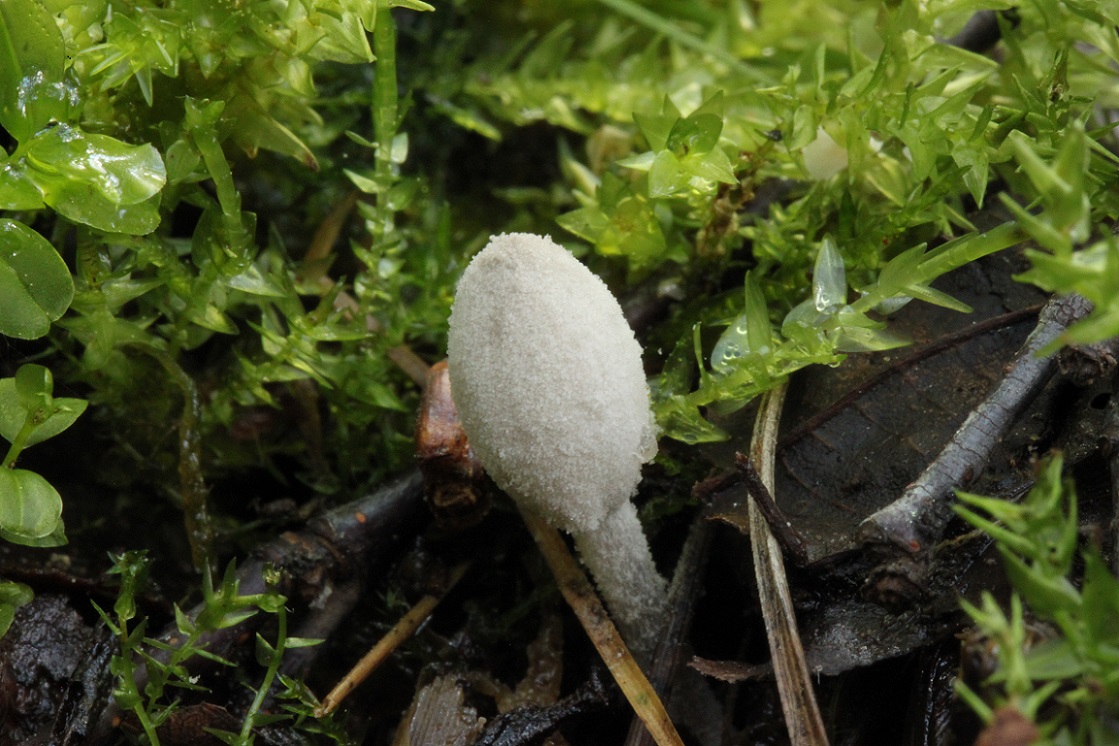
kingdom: Fungi
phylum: Basidiomycota
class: Agaricomycetes
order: Agaricales
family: Psathyrellaceae
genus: Coprinopsis
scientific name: Coprinopsis saccharomyces
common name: gær-blækhat
